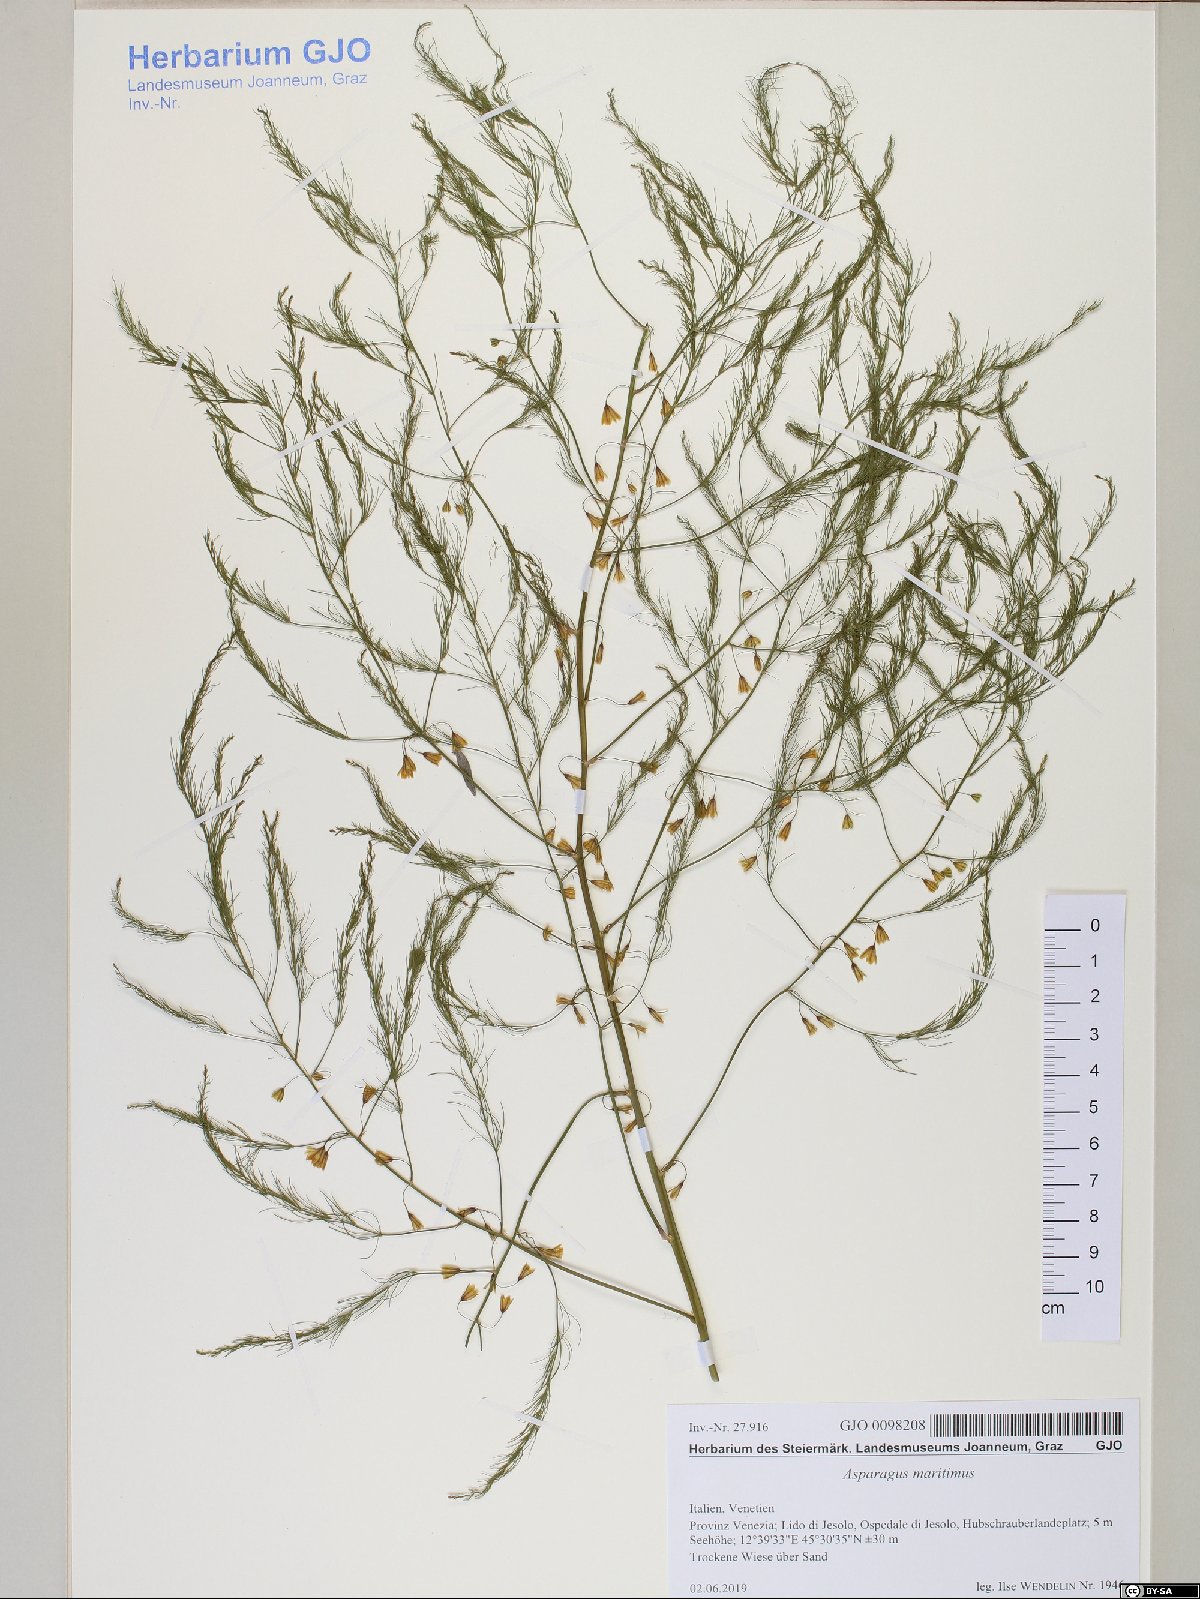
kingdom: Plantae
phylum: Tracheophyta
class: Liliopsida
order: Asparagales
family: Asparagaceae
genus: Asparagus
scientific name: Asparagus maritimus
